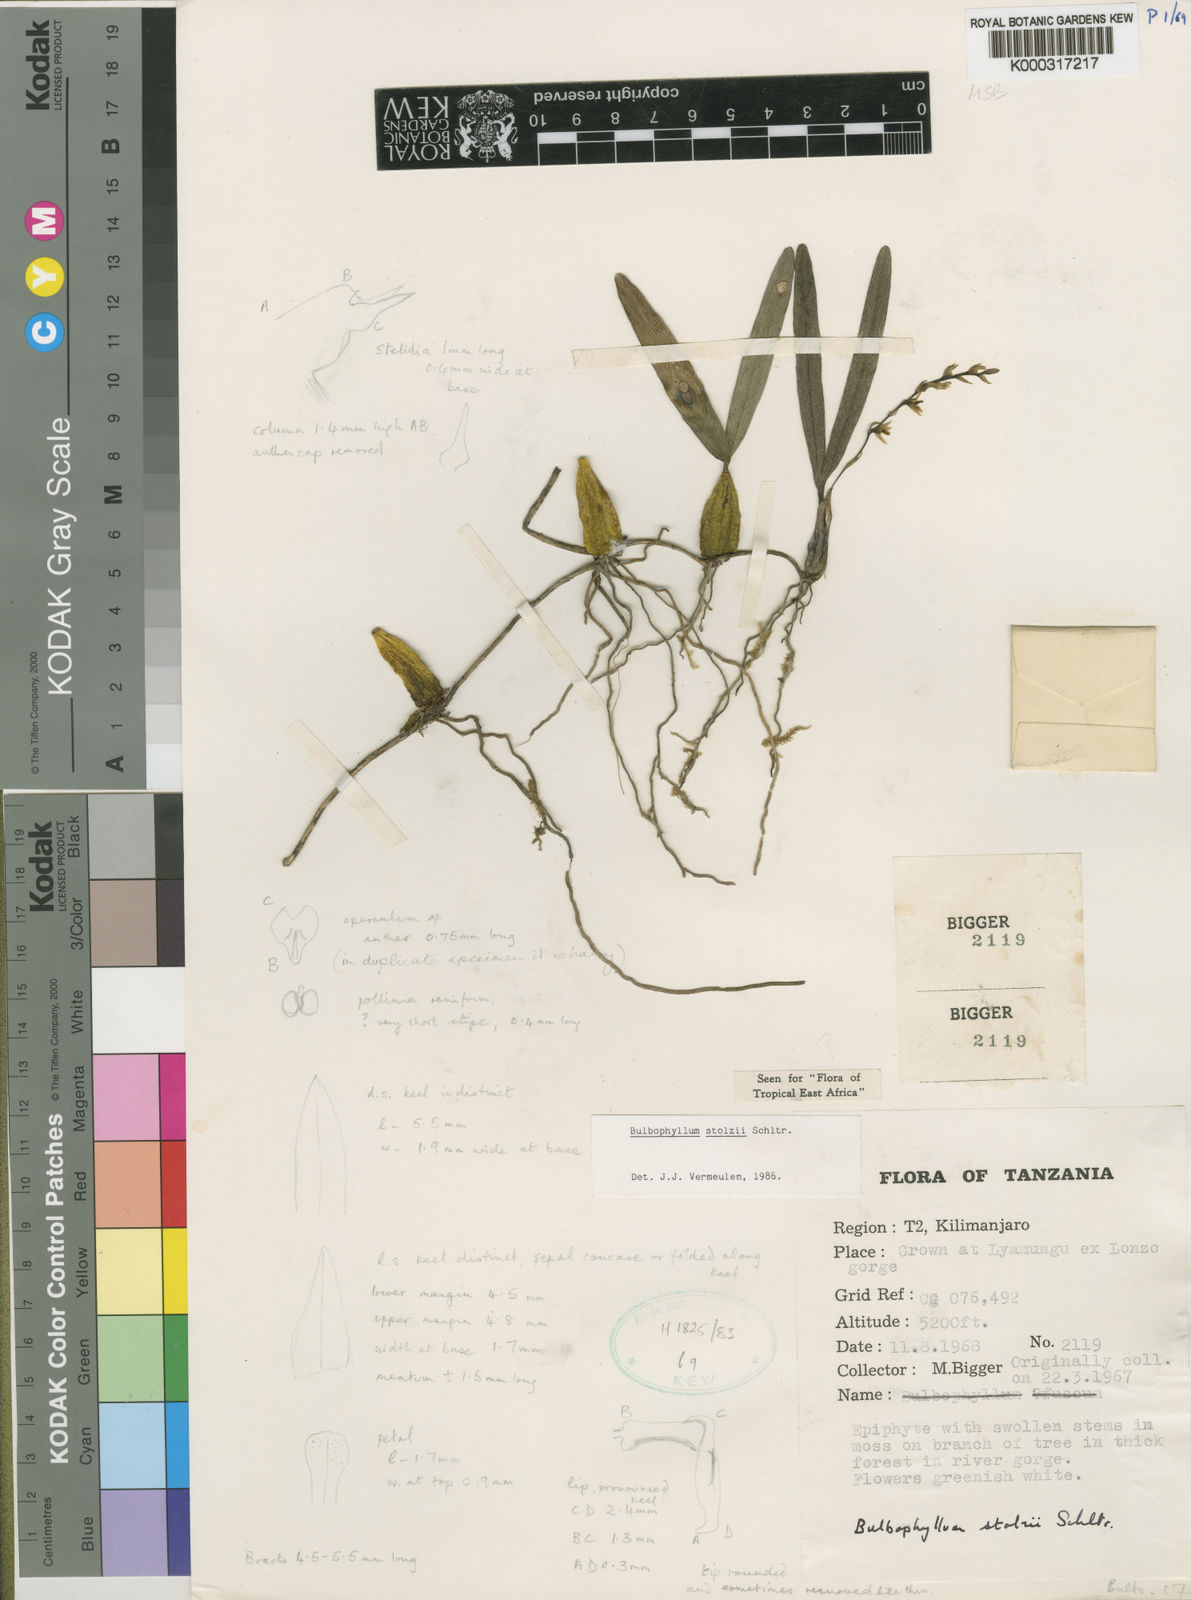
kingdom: Plantae
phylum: Tracheophyta
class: Liliopsida
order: Asparagales
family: Orchidaceae
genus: Bulbophyllum
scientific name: Bulbophyllum stolzii
